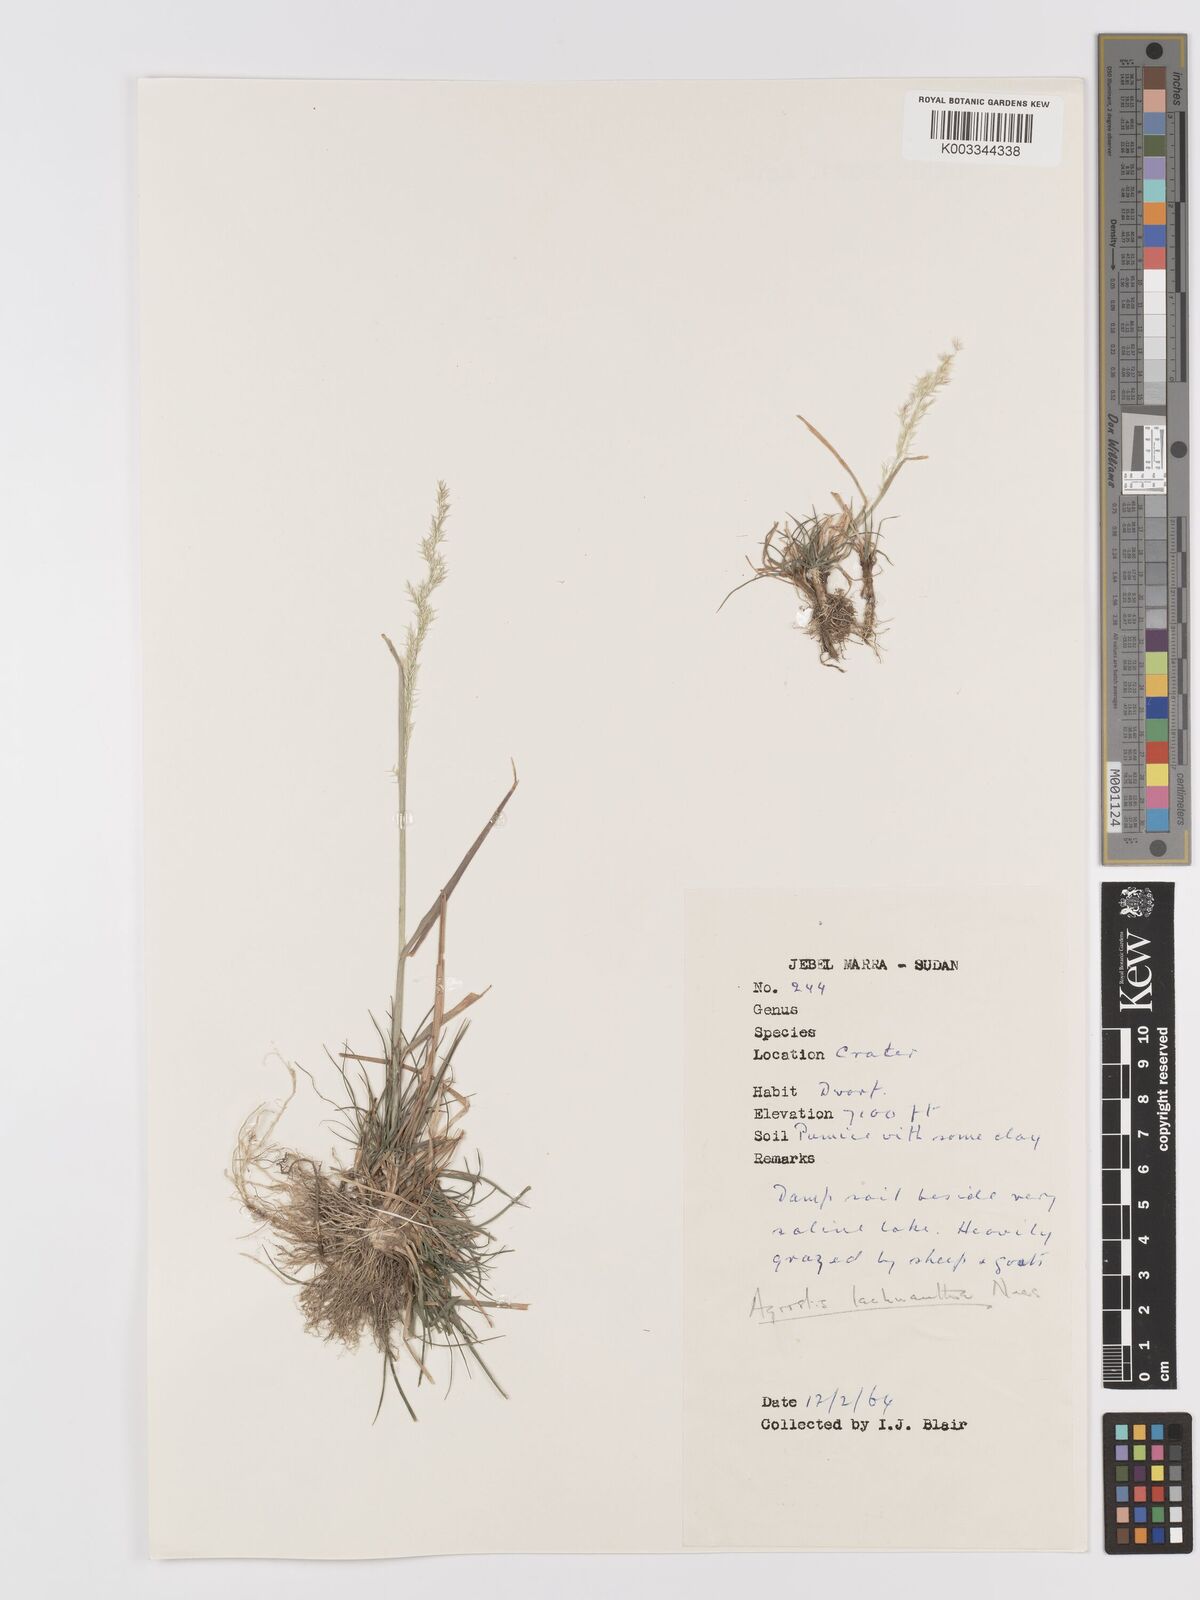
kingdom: Plantae
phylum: Tracheophyta
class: Liliopsida
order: Poales
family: Poaceae
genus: Lachnagrostis
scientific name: Lachnagrostis lachnantha
